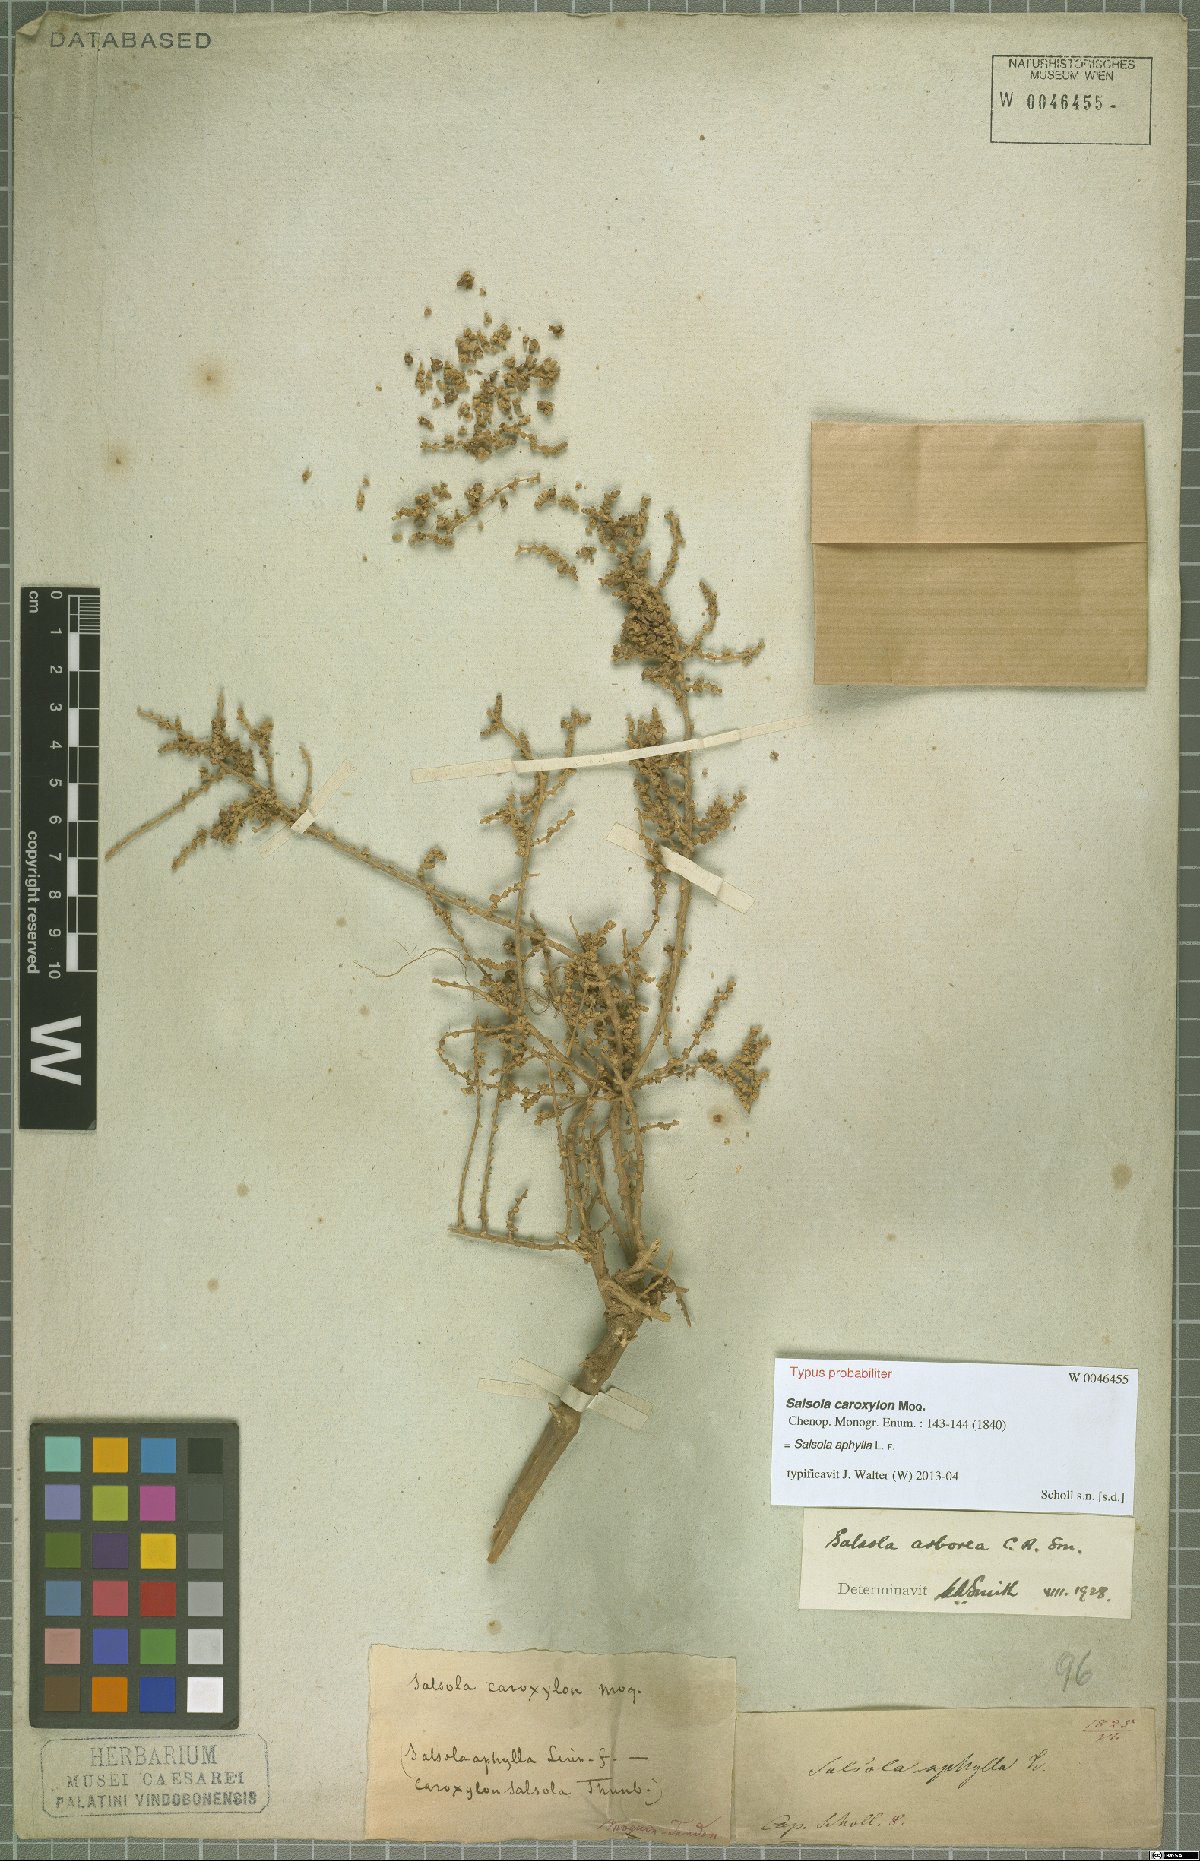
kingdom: Plantae
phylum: Tracheophyta
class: Magnoliopsida
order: Caryophyllales
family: Amaranthaceae
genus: Caroxylon
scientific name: Caroxylon aphyllum
